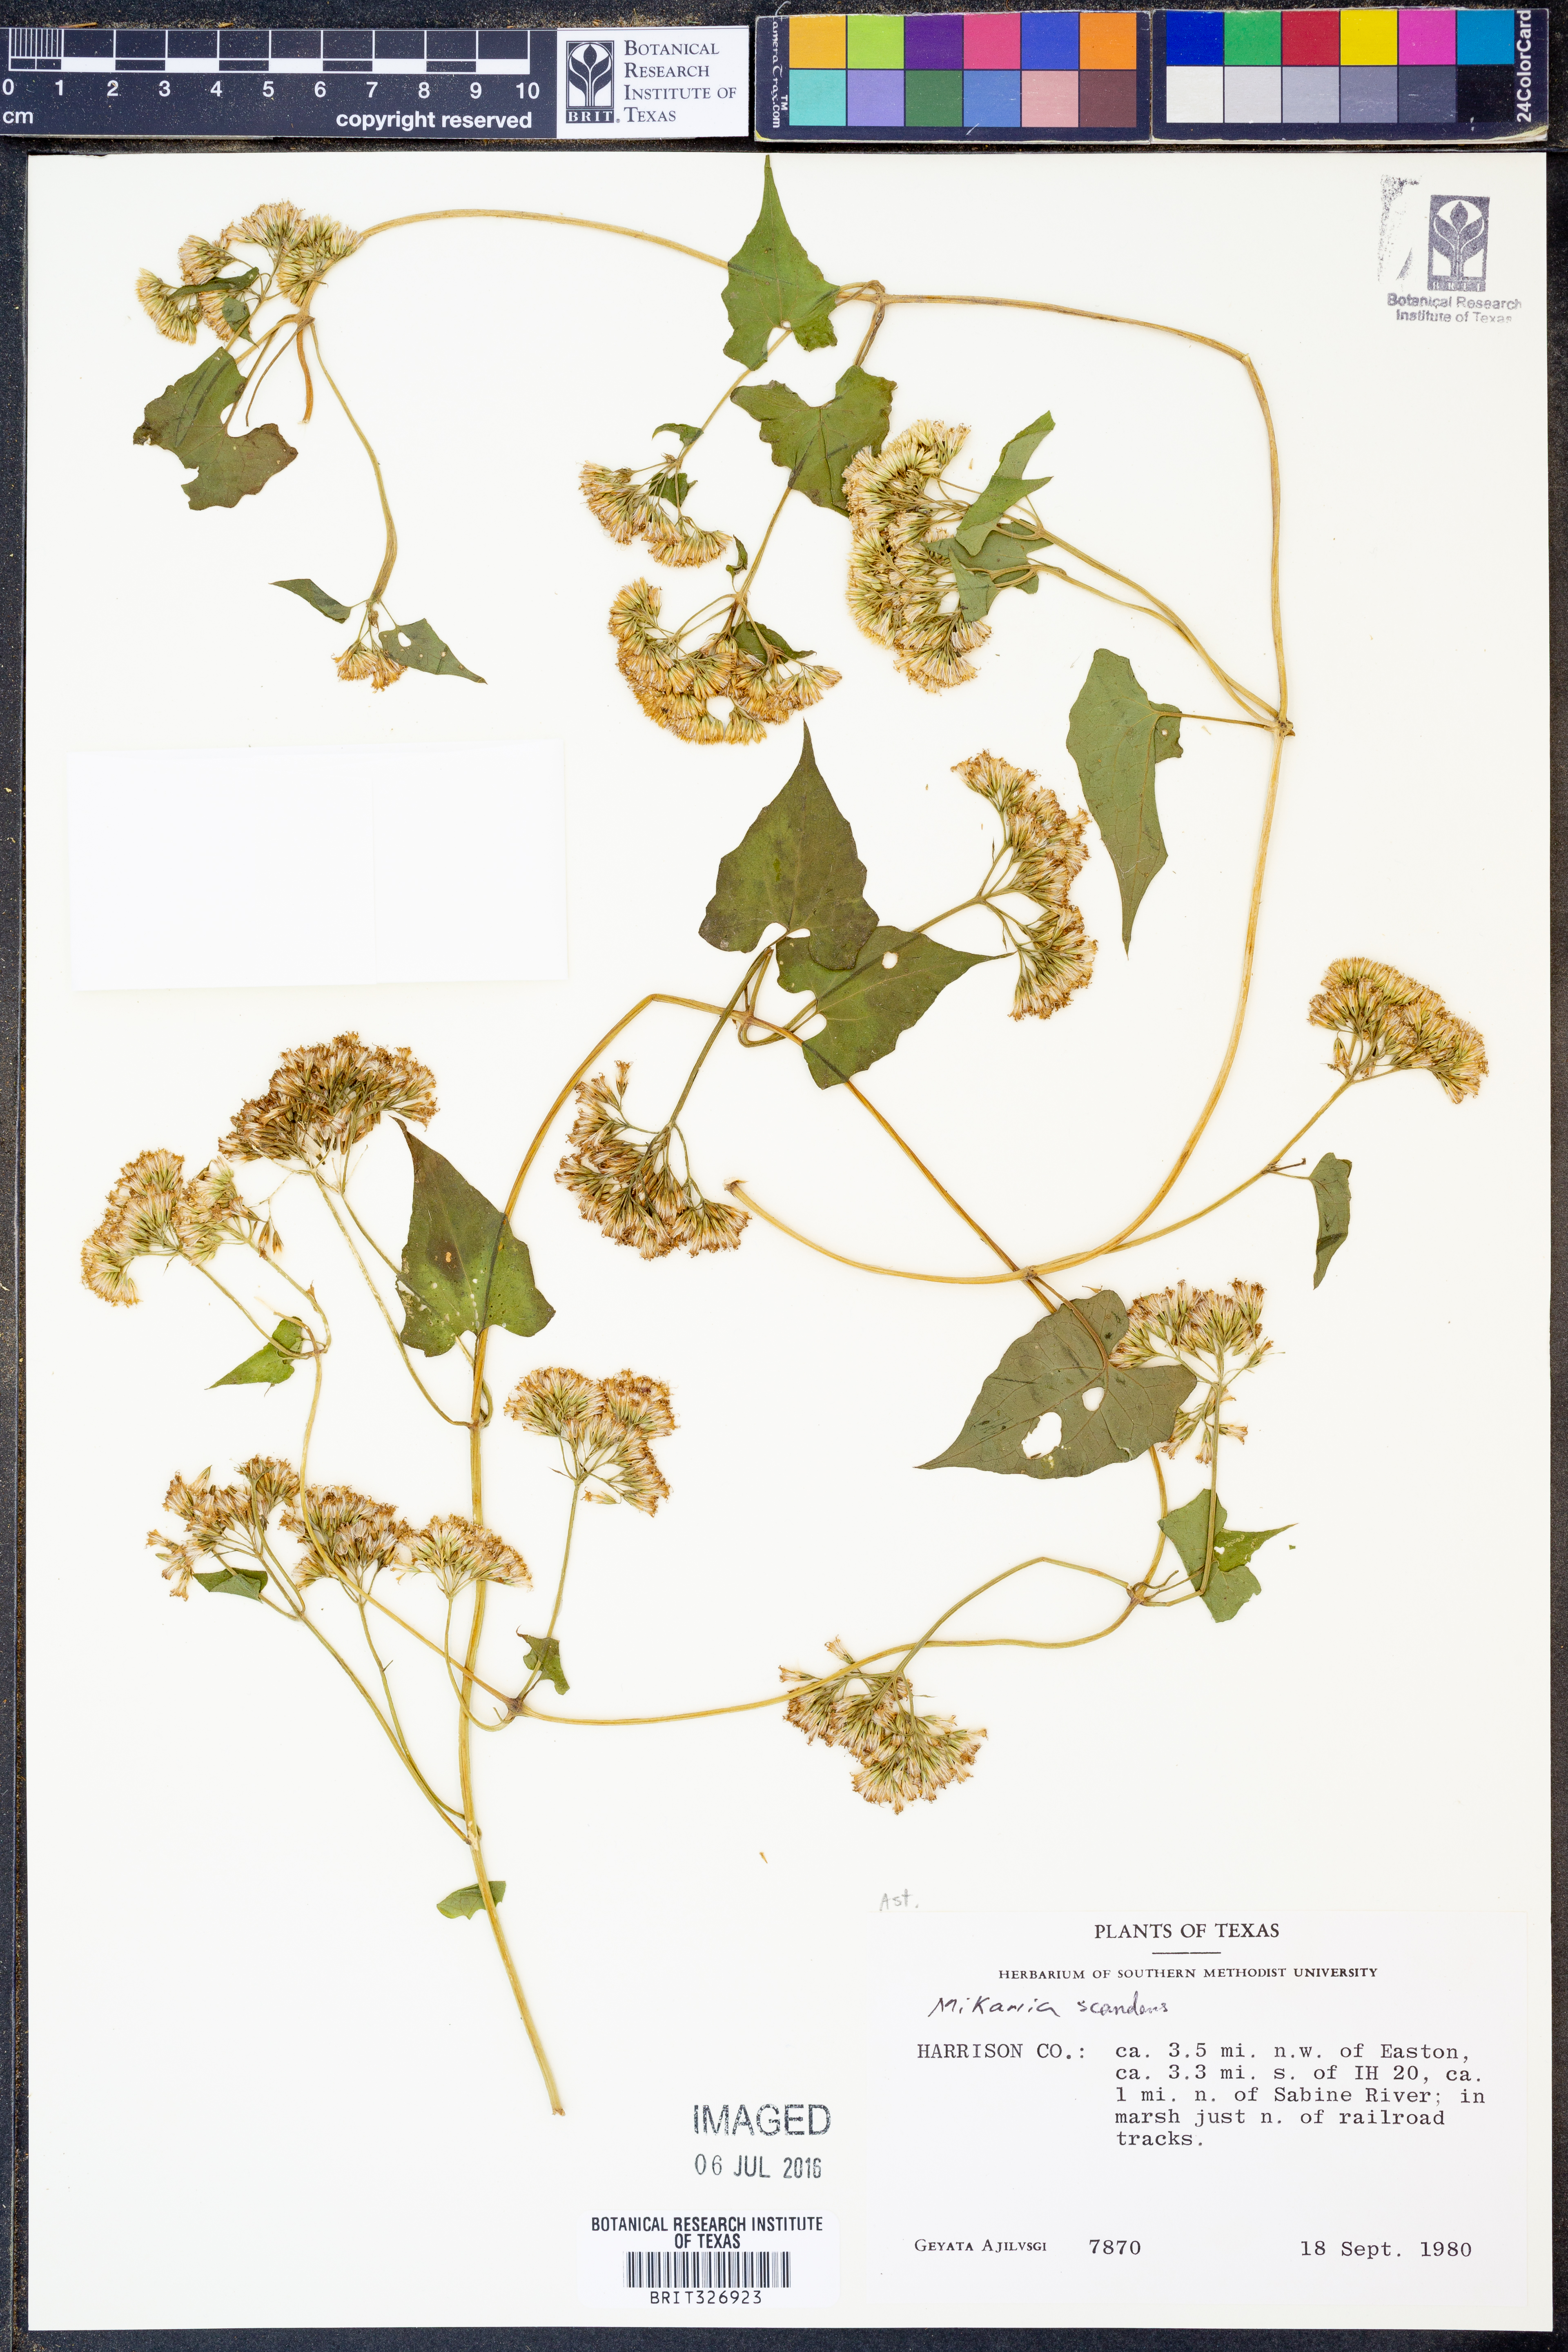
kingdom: Plantae
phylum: Tracheophyta
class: Magnoliopsida
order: Asterales
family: Asteraceae
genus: Mikania
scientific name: Mikania scandens
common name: Climbing hempvine
